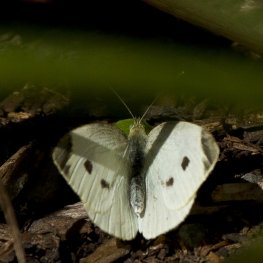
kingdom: Animalia
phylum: Arthropoda
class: Insecta
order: Lepidoptera
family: Pieridae
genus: Pieris
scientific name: Pieris rapae
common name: Cabbage White
